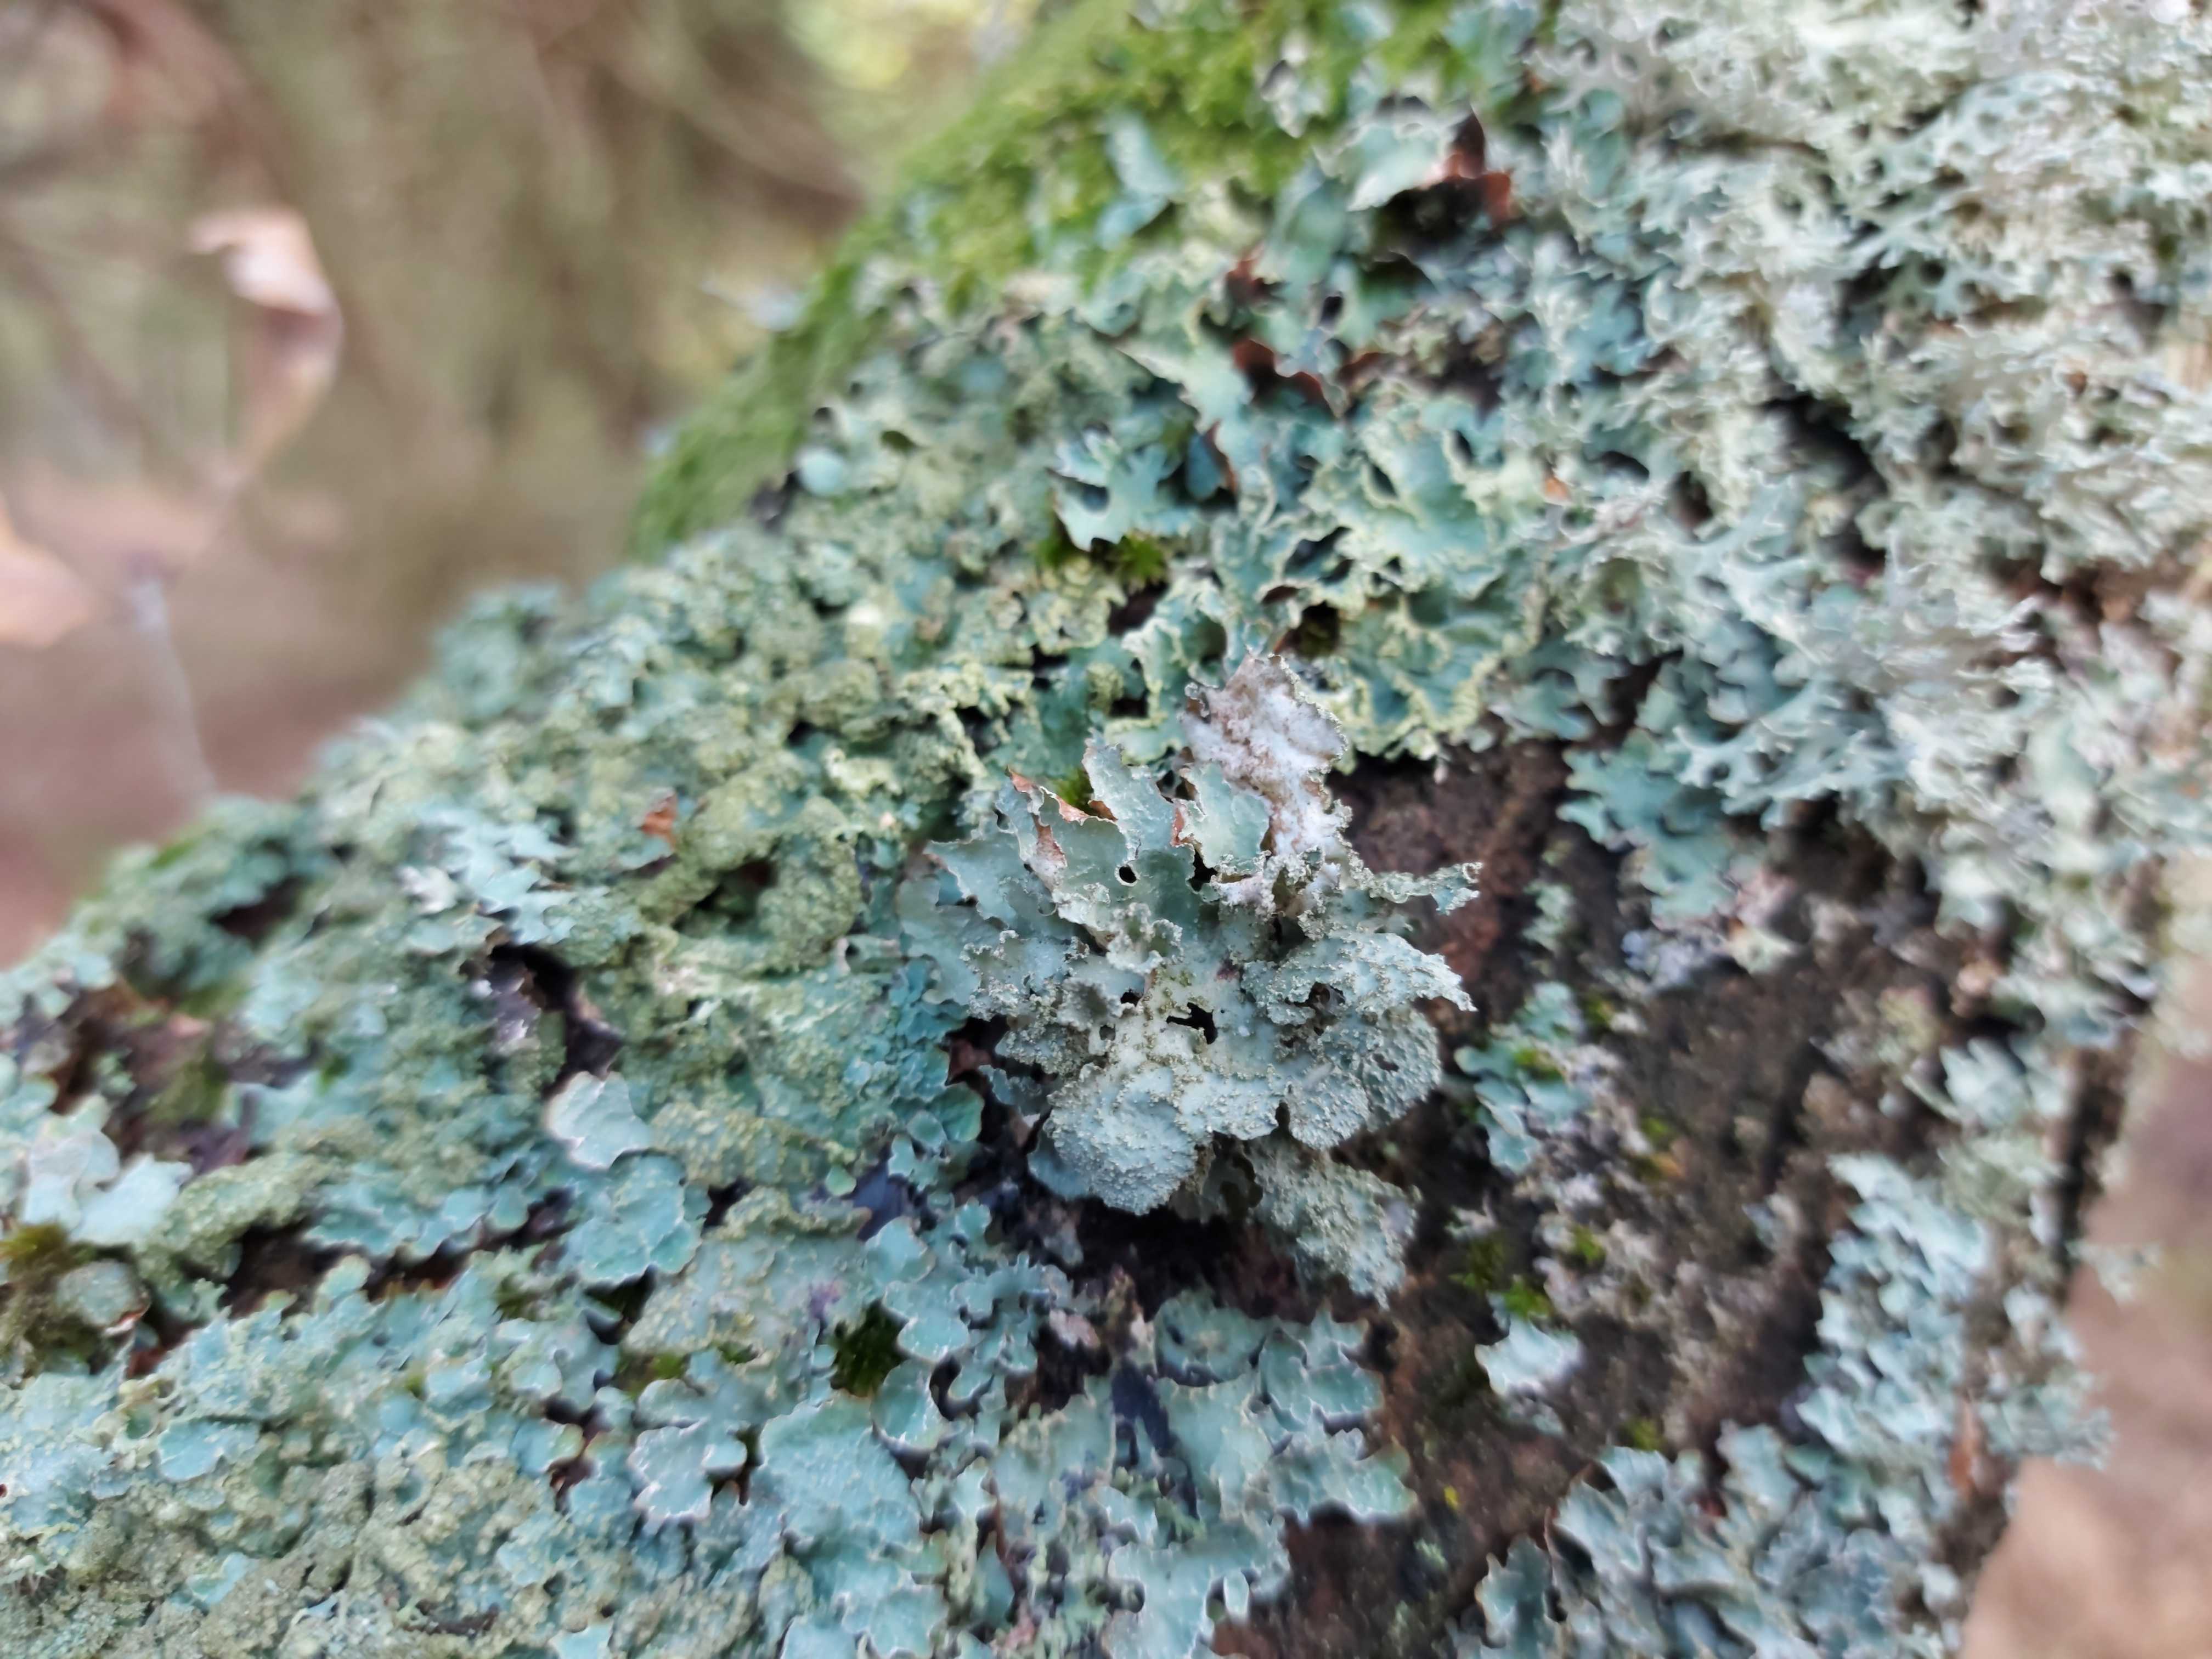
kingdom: Fungi
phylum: Ascomycota
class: Lecanoromycetes
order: Lecanorales
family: Parmeliaceae
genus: Platismatia
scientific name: Platismatia glauca
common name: blågrå papirlav
